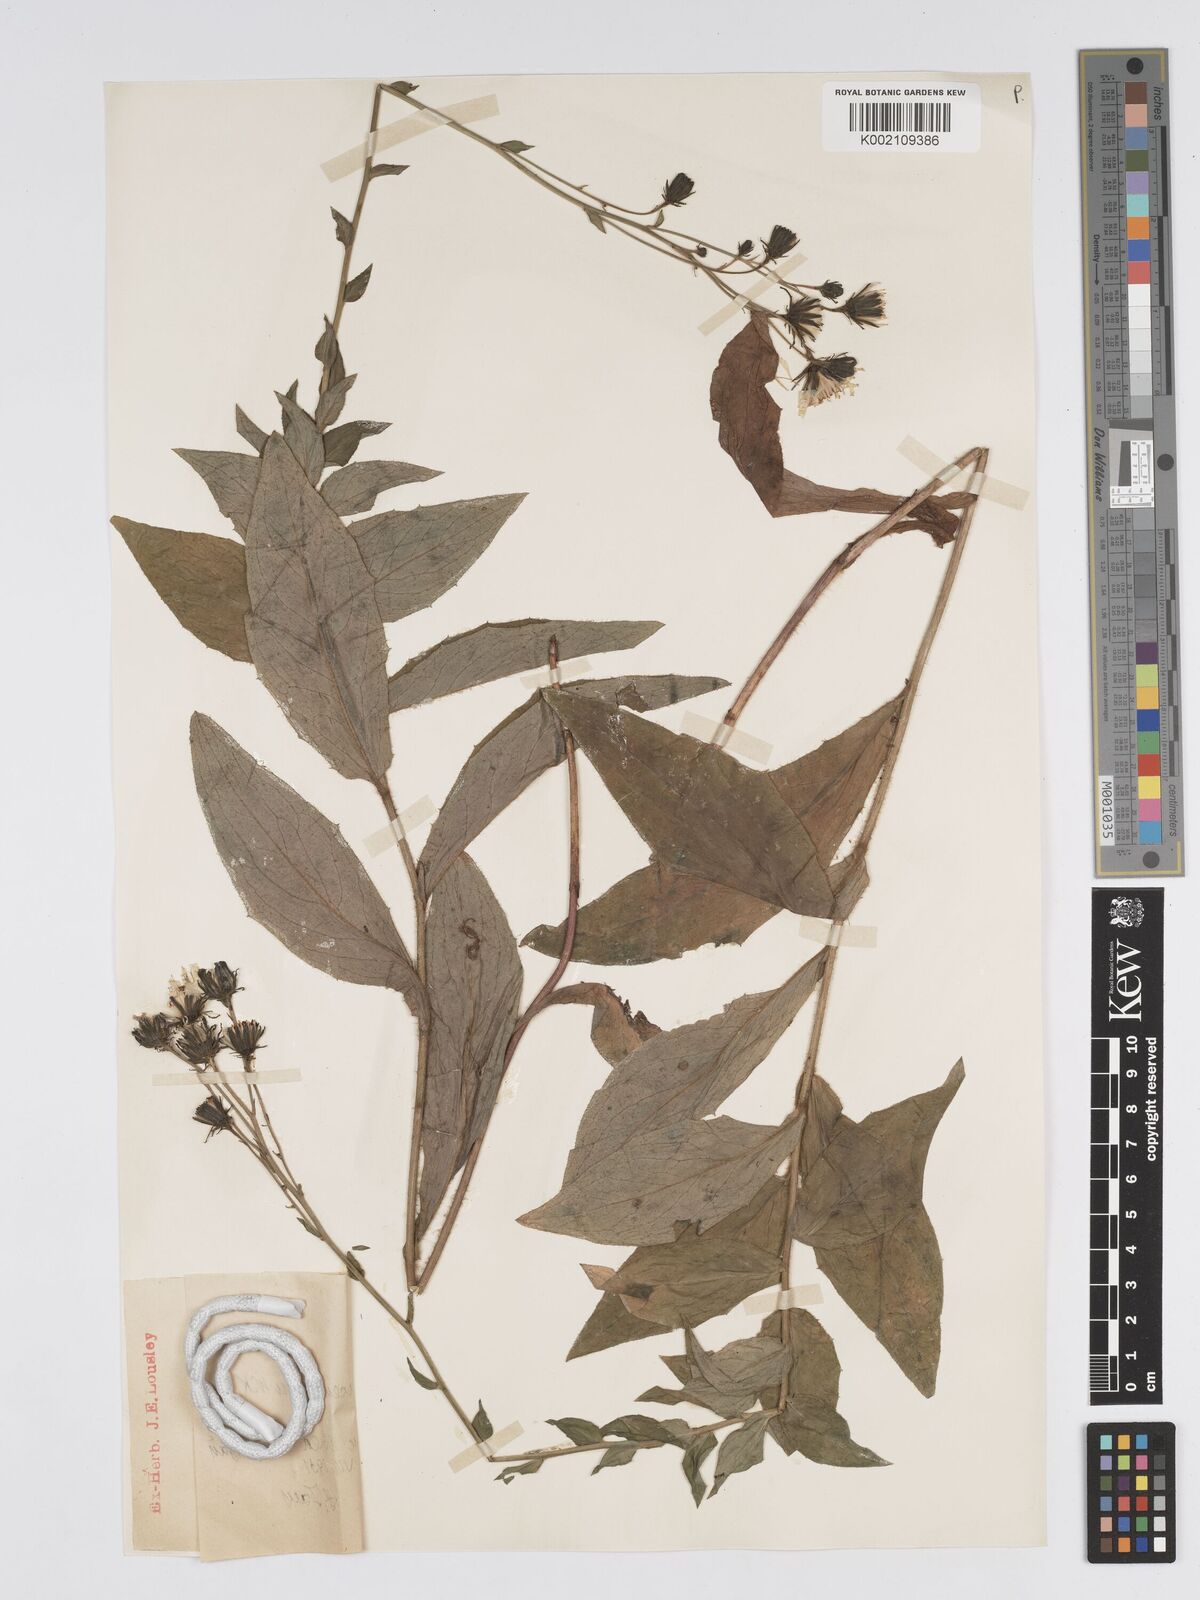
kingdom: Plantae
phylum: Tracheophyta
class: Magnoliopsida
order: Asterales
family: Asteraceae
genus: Hieracium
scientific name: Hieracium racemosum
